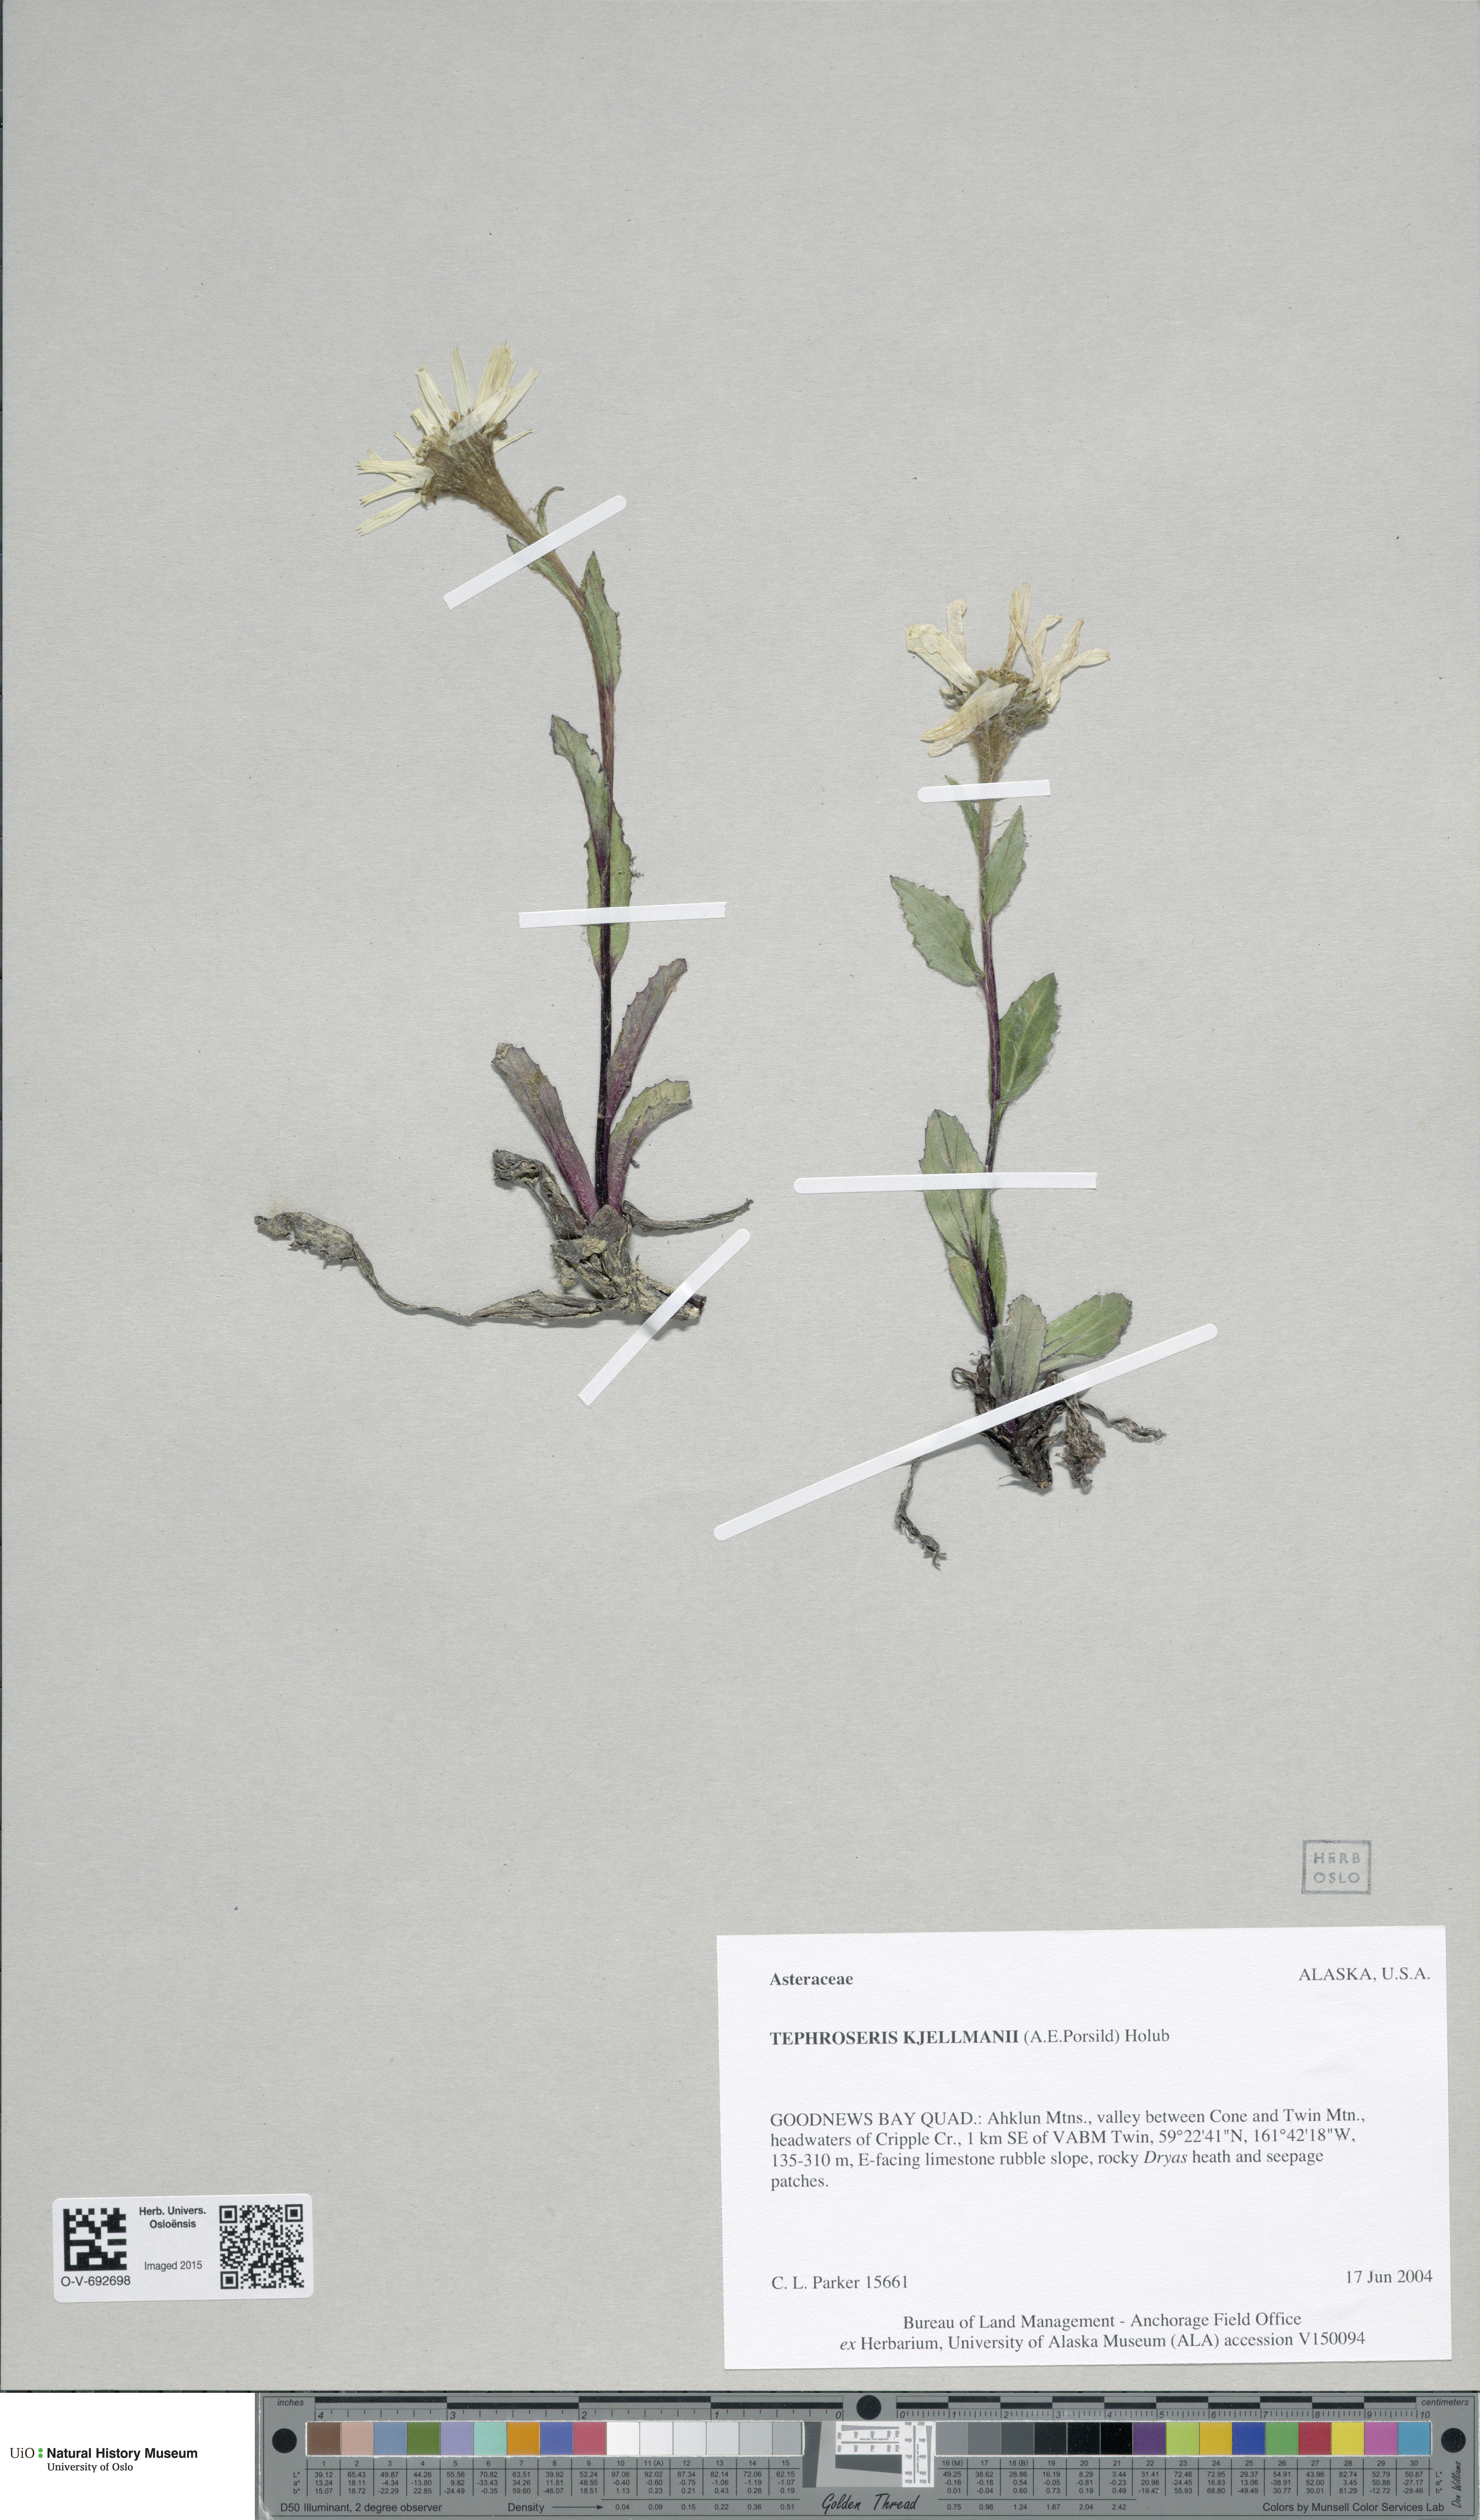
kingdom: Plantae
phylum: Tracheophyta
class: Magnoliopsida
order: Asterales
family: Asteraceae
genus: Tephroseris
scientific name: Tephroseris kjellmanii
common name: Kjellman's groundsel
